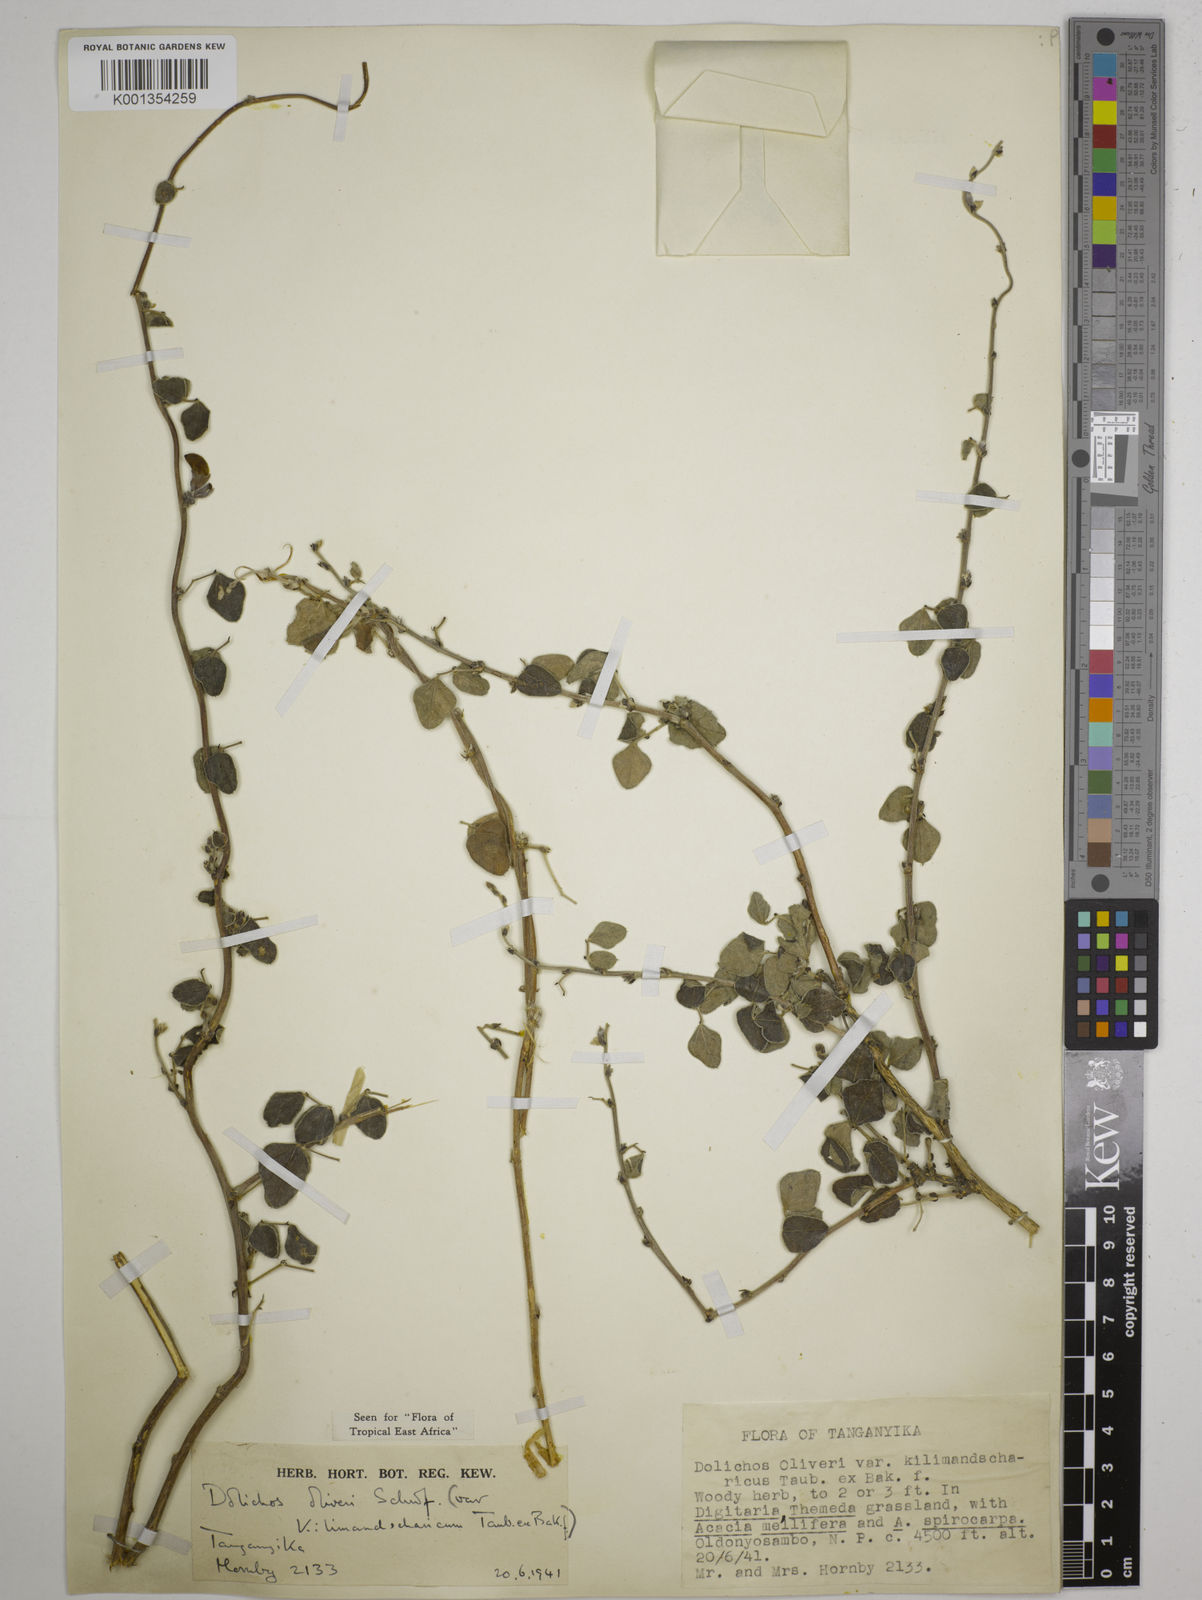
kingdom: Plantae
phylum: Tracheophyta
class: Magnoliopsida
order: Fabales
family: Fabaceae
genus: Dolichos
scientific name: Dolichos
